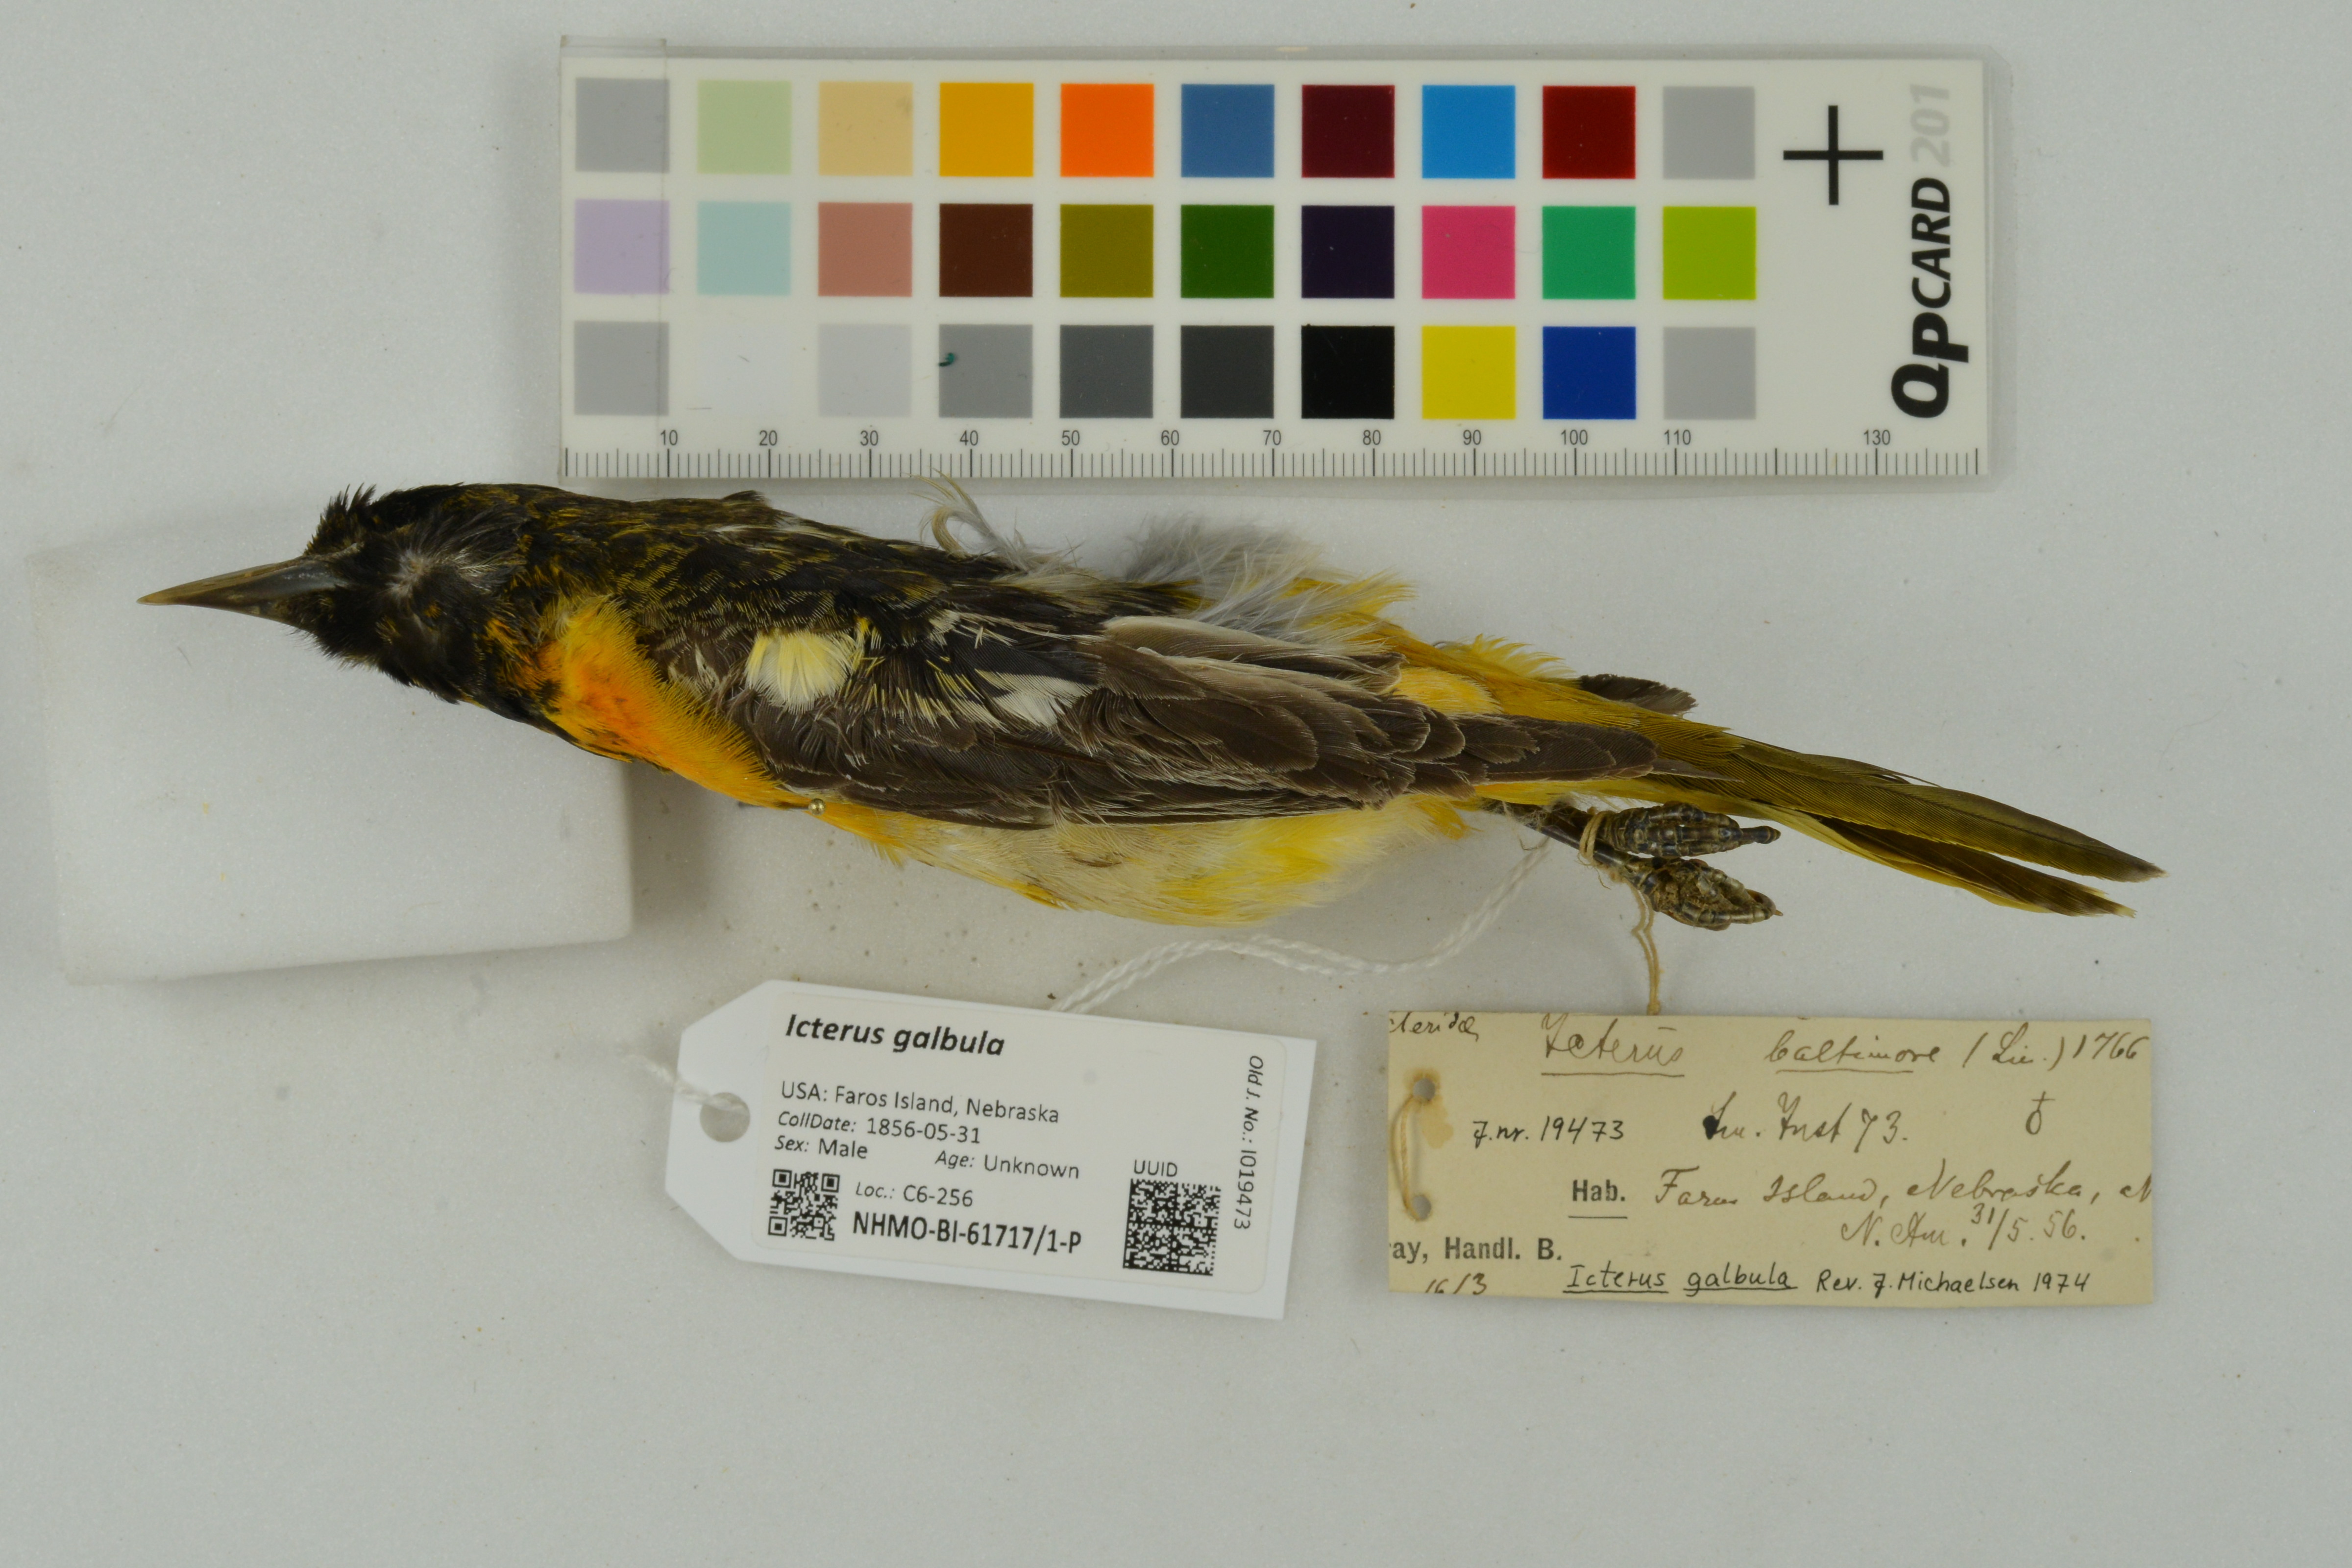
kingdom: Animalia
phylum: Chordata
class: Aves
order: Passeriformes
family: Icteridae
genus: Icterus
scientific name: Icterus galbula
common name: Baltimore oriole
